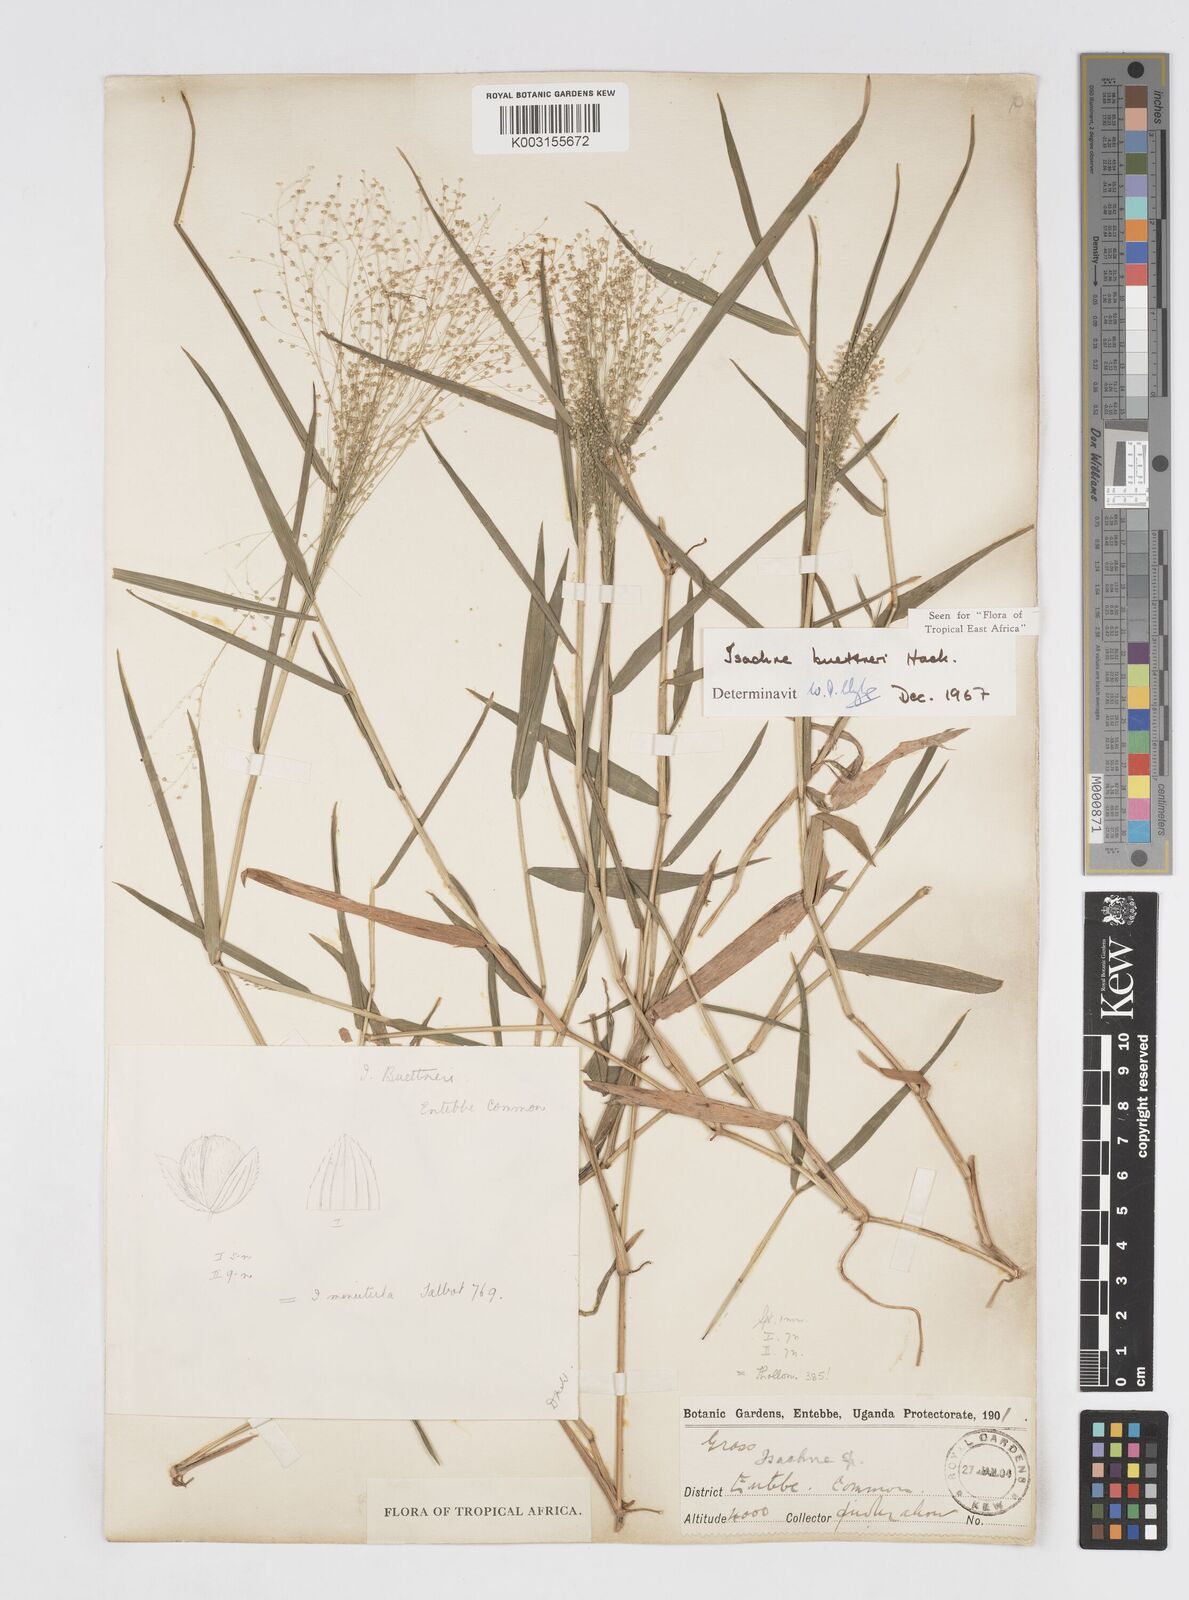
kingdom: Plantae
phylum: Tracheophyta
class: Liliopsida
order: Poales
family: Poaceae
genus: Isachne
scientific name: Isachne albens
